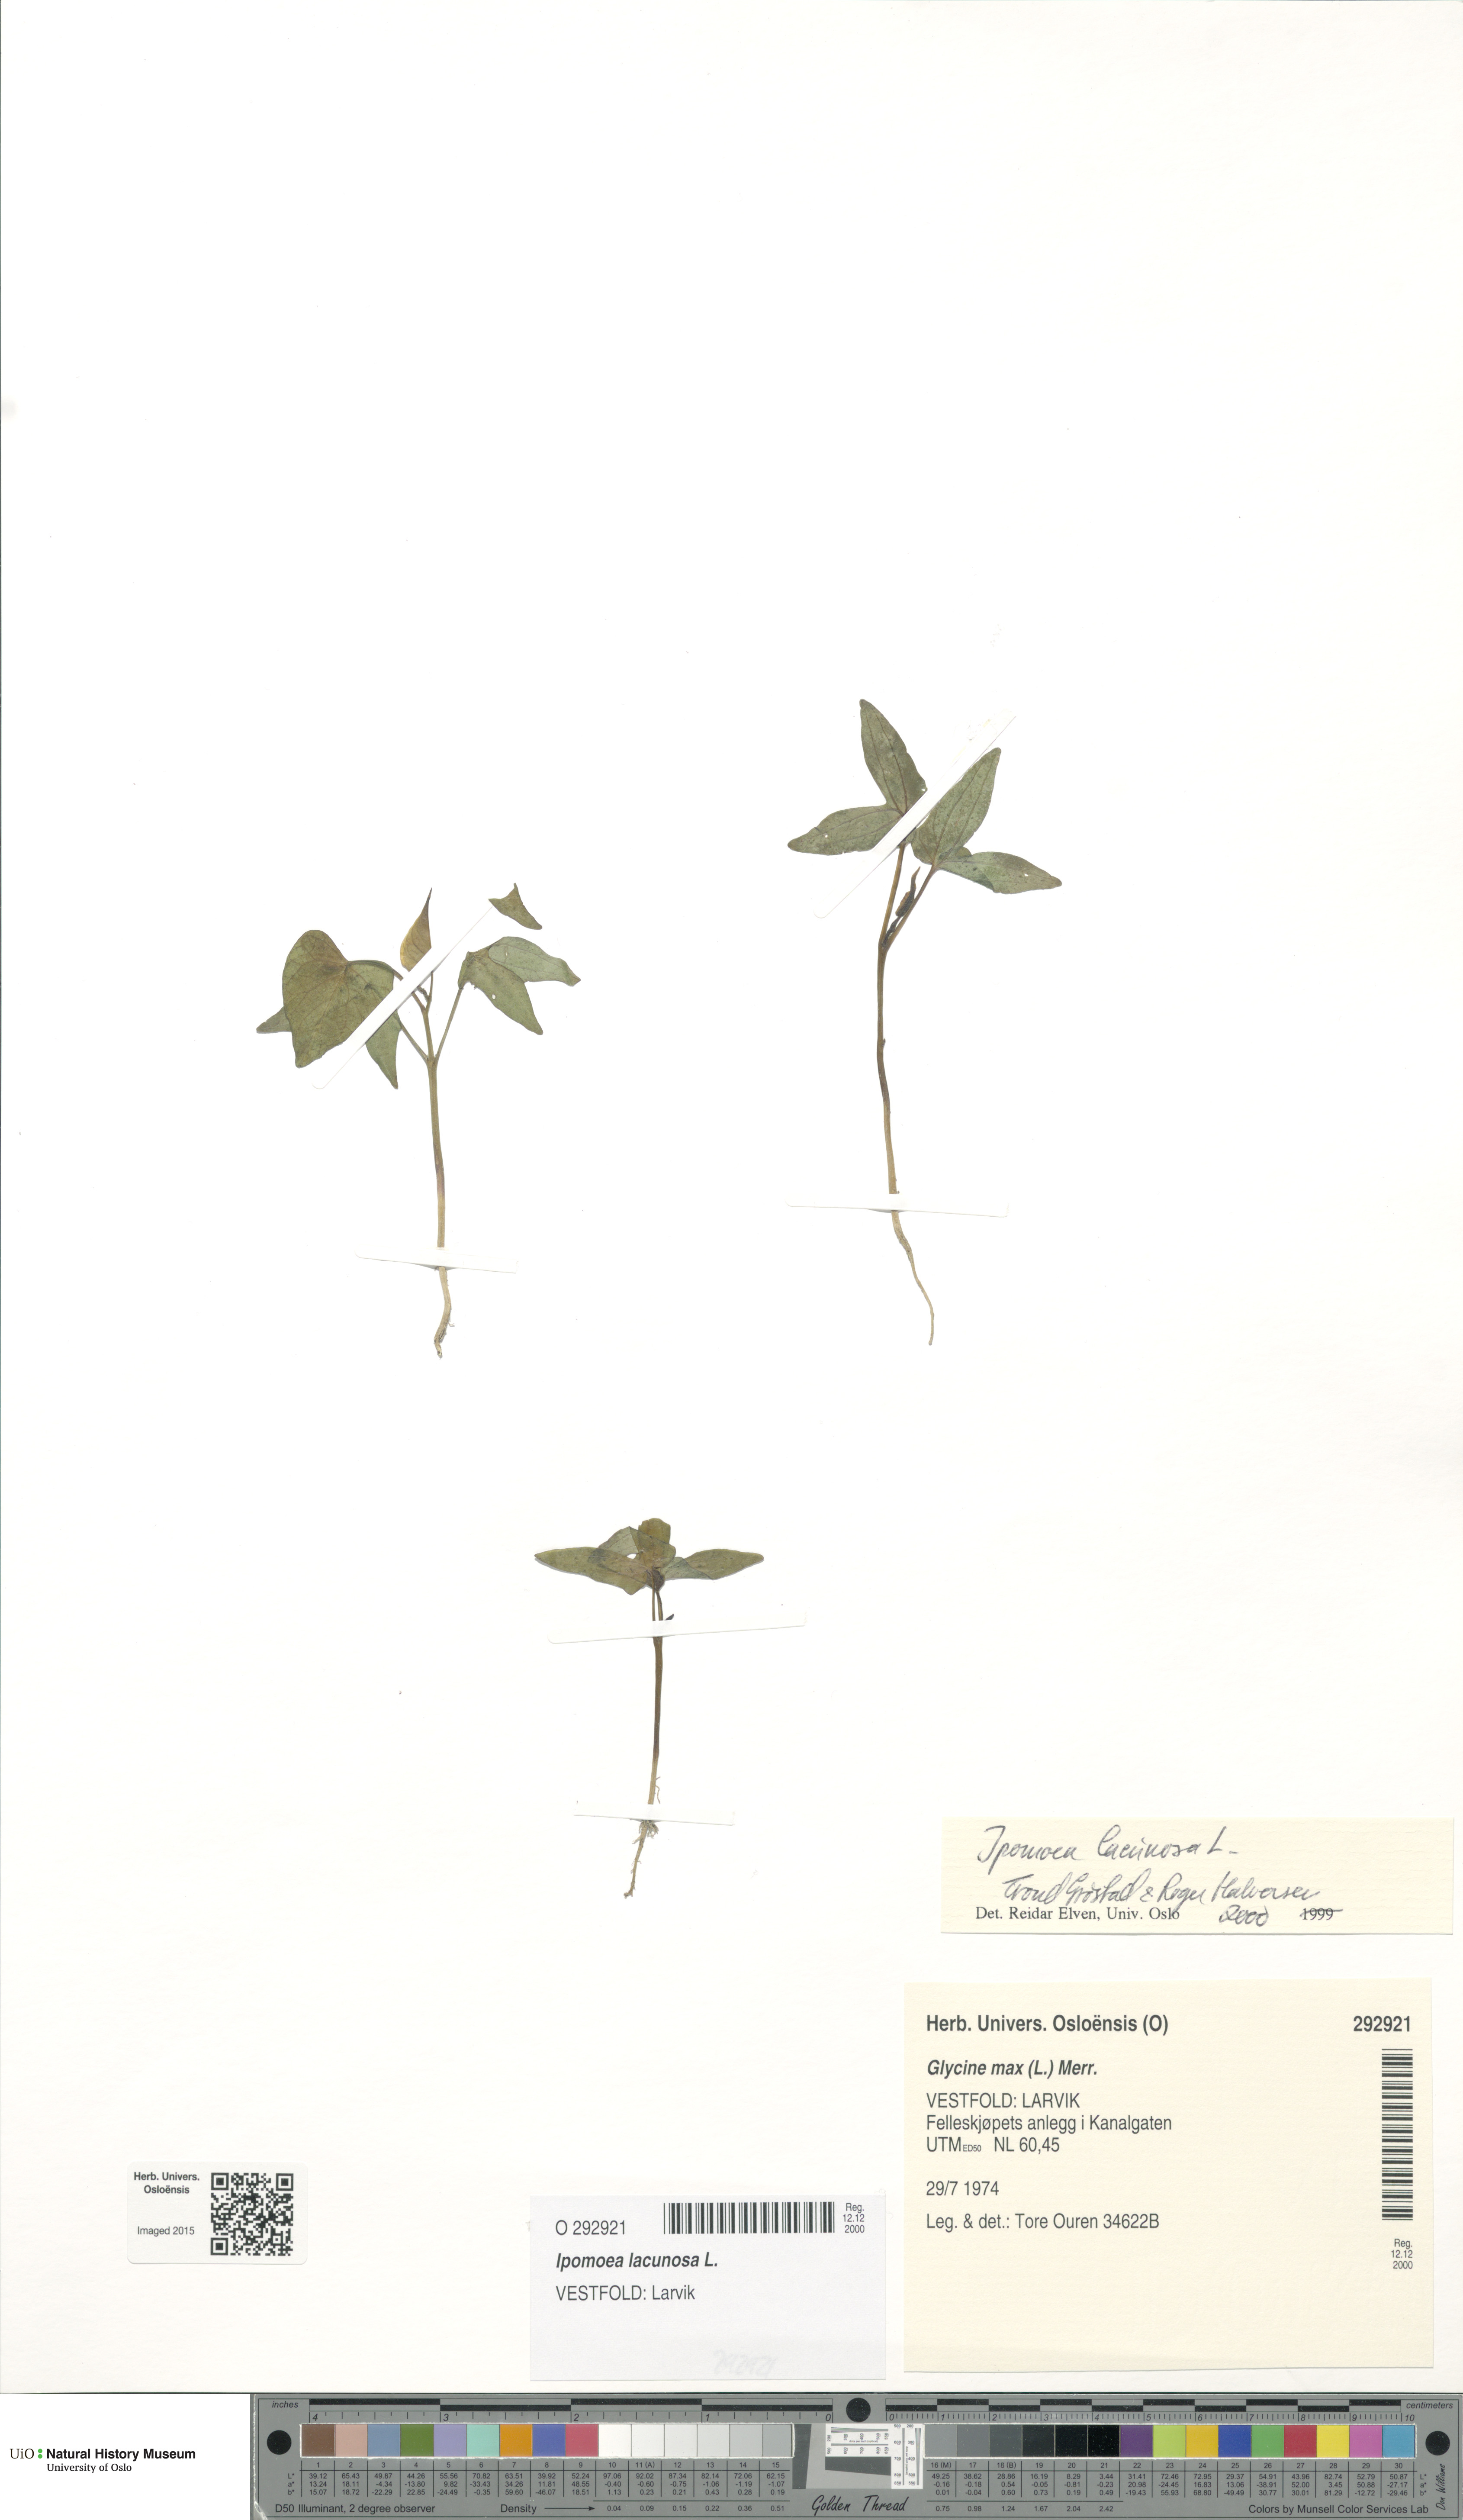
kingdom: Plantae
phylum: Tracheophyta
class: Magnoliopsida
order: Solanales
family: Convolvulaceae
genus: Ipomoea
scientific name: Ipomoea lacunosa
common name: White morning-glory
